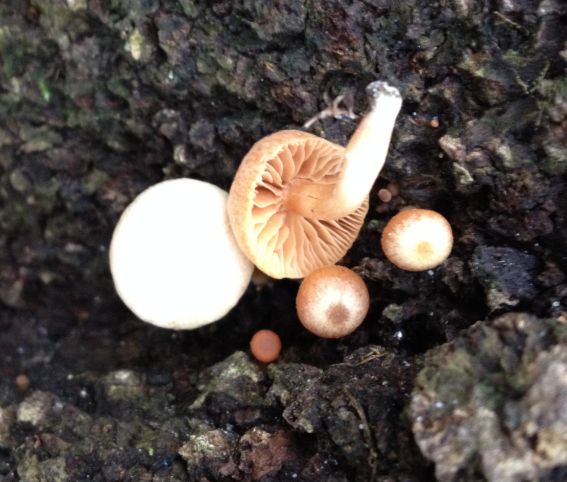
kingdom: Fungi
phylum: Basidiomycota
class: Agaricomycetes
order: Agaricales
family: Tubariaceae
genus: Tubaria
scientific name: Tubaria furfuracea
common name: kliddet fnughat
